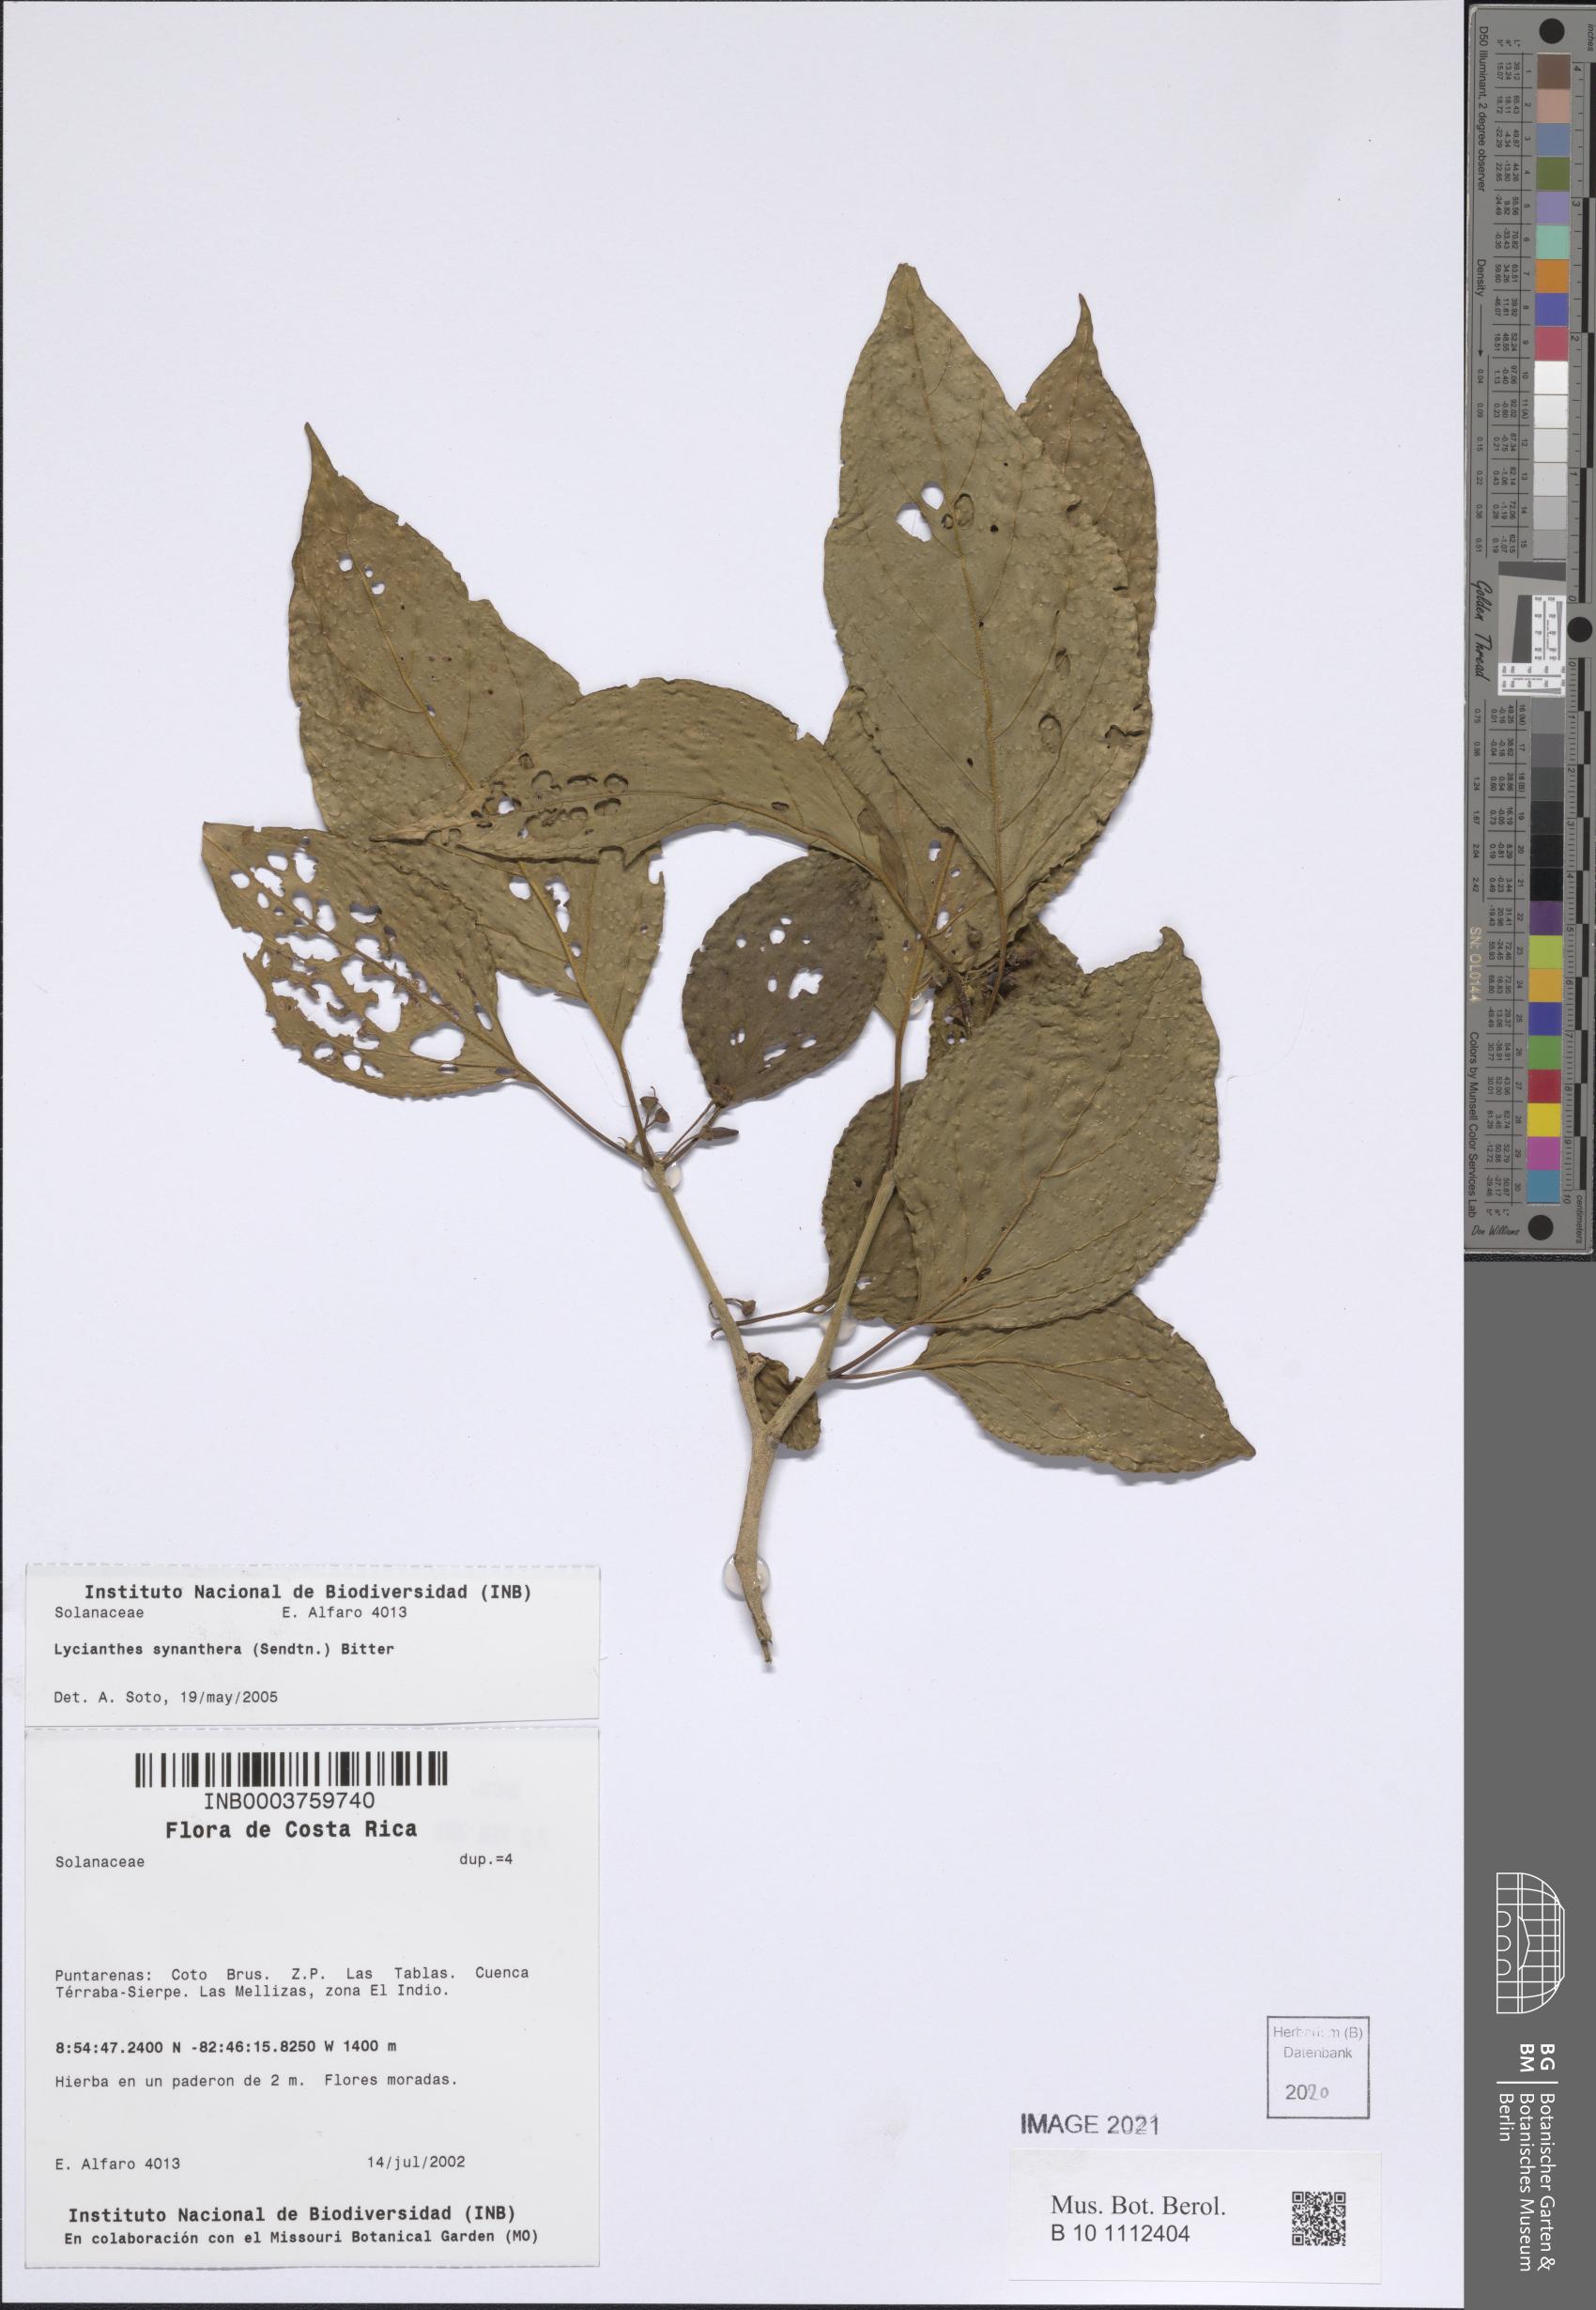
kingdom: Plantae
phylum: Tracheophyta
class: Magnoliopsida
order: Solanales
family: Solanaceae
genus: Lycianthes
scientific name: Lycianthes synanthera
